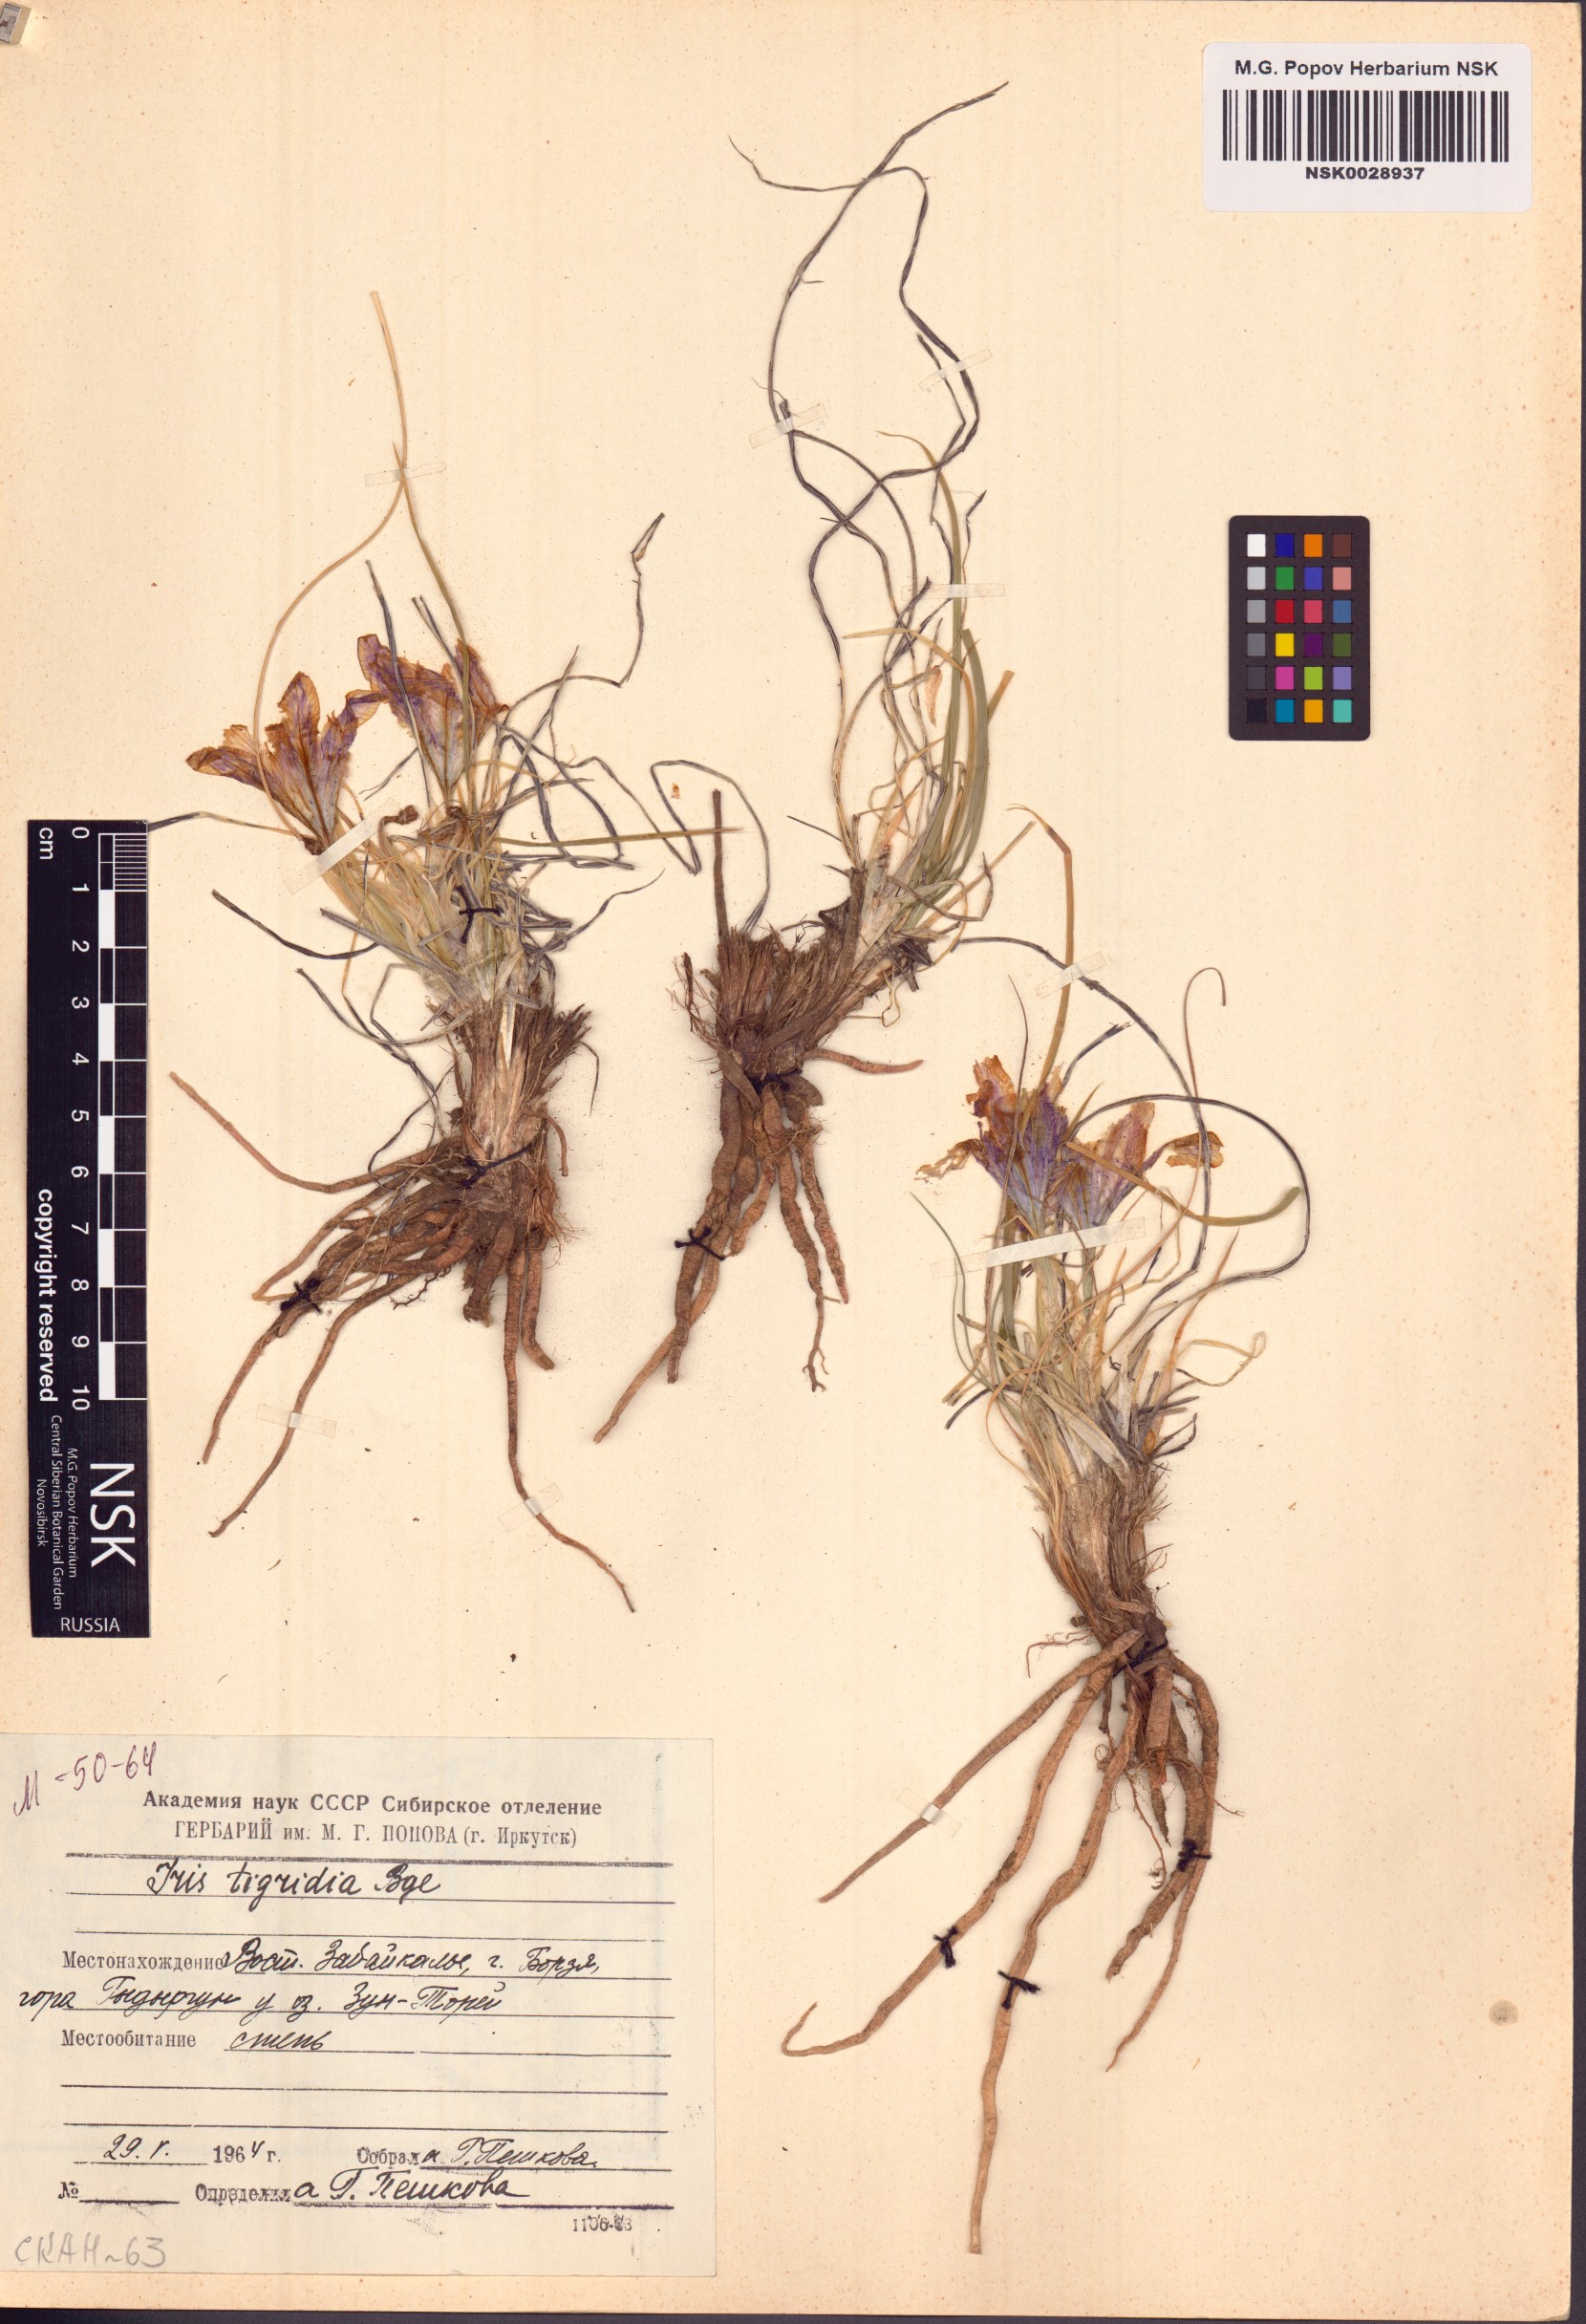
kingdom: Plantae
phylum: Tracheophyta
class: Liliopsida
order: Asparagales
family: Iridaceae
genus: Iris
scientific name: Iris tigridia
